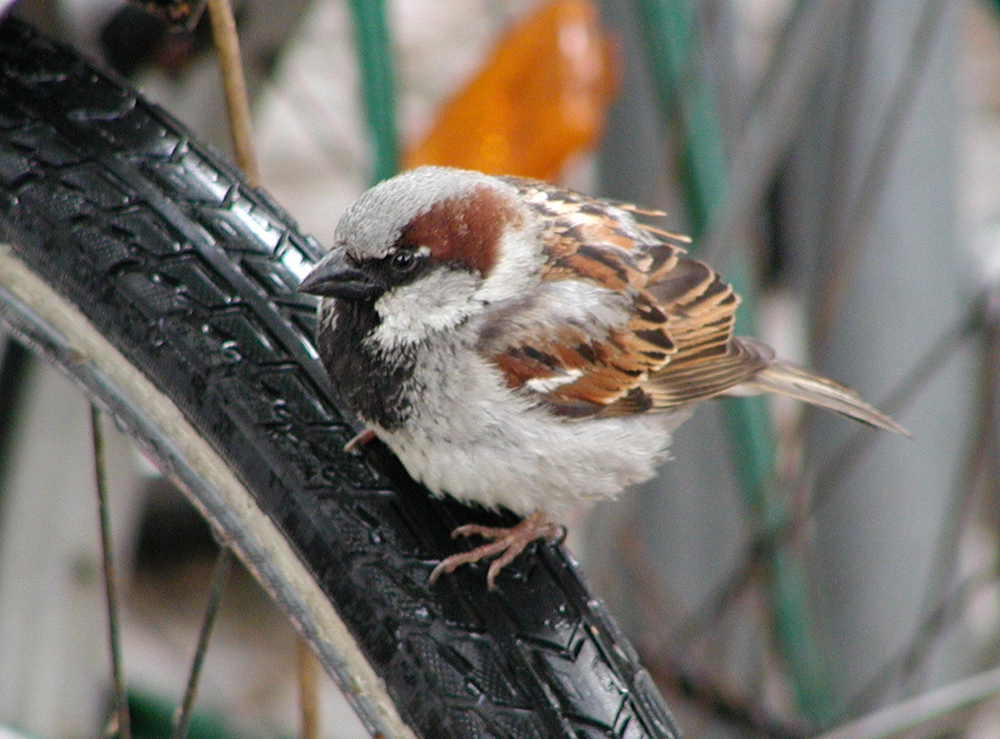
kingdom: Animalia
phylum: Chordata
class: Aves
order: Passeriformes
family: Passeridae
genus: Passer
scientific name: Passer domesticus
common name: House sparrow
